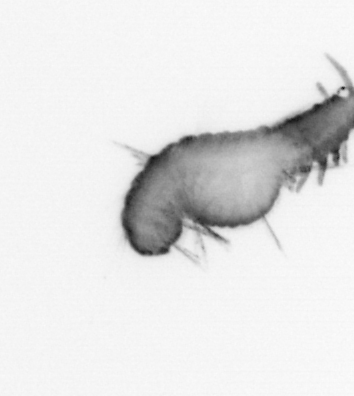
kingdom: Animalia
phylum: Annelida
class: Polychaeta
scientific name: Polychaeta
